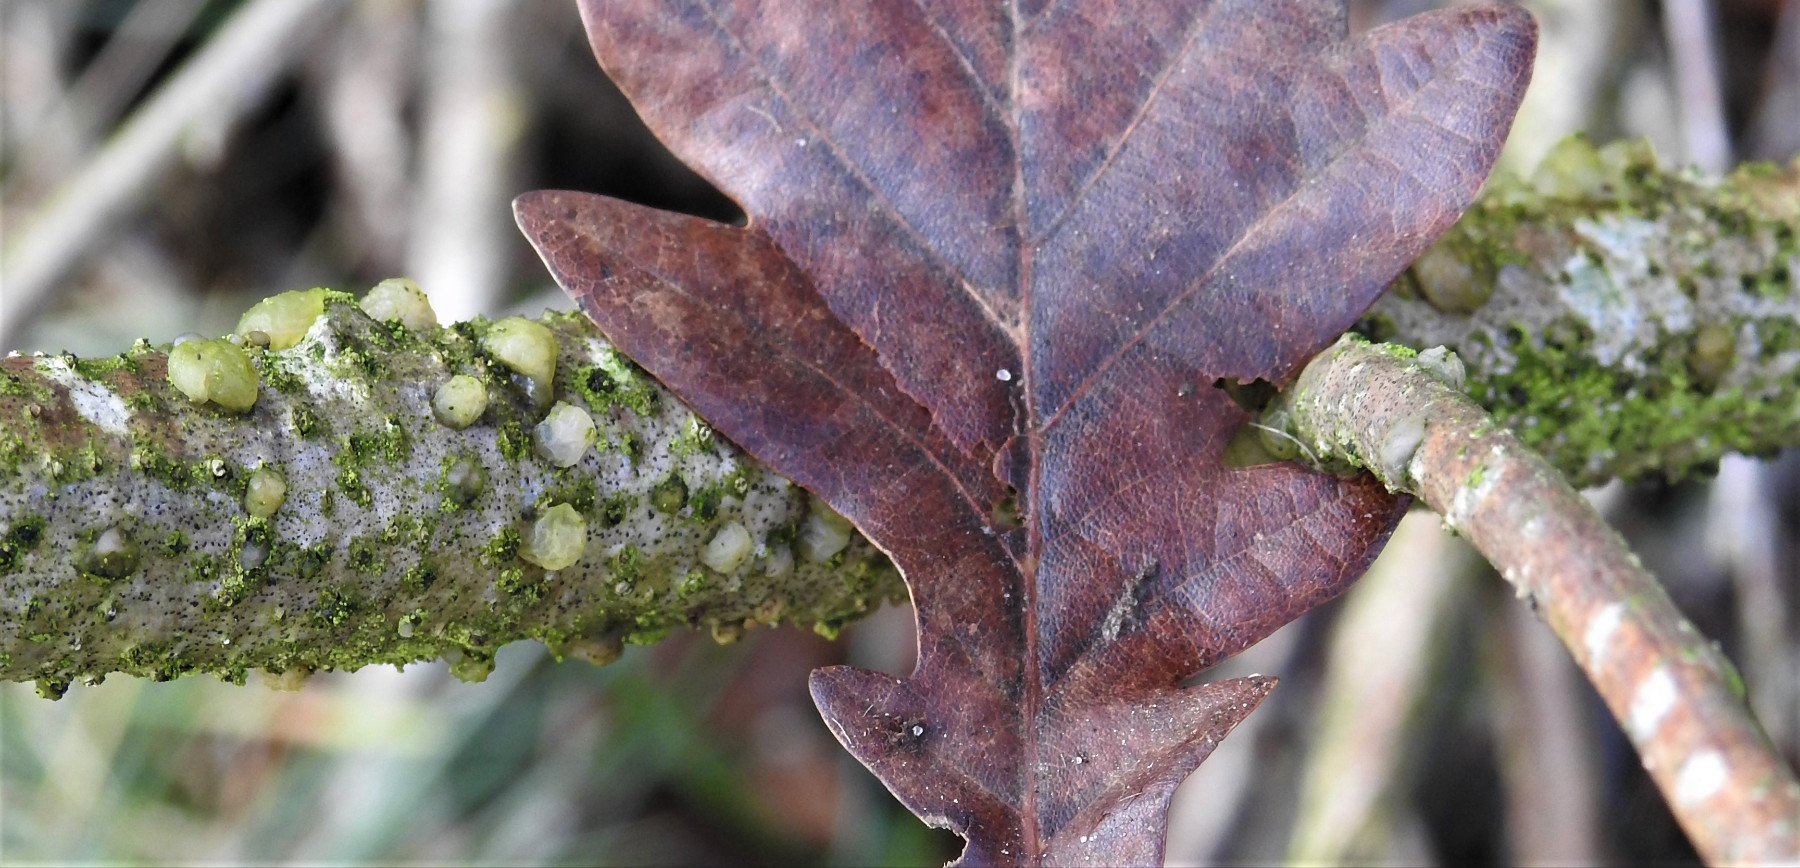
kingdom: Fungi
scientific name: Fungi
